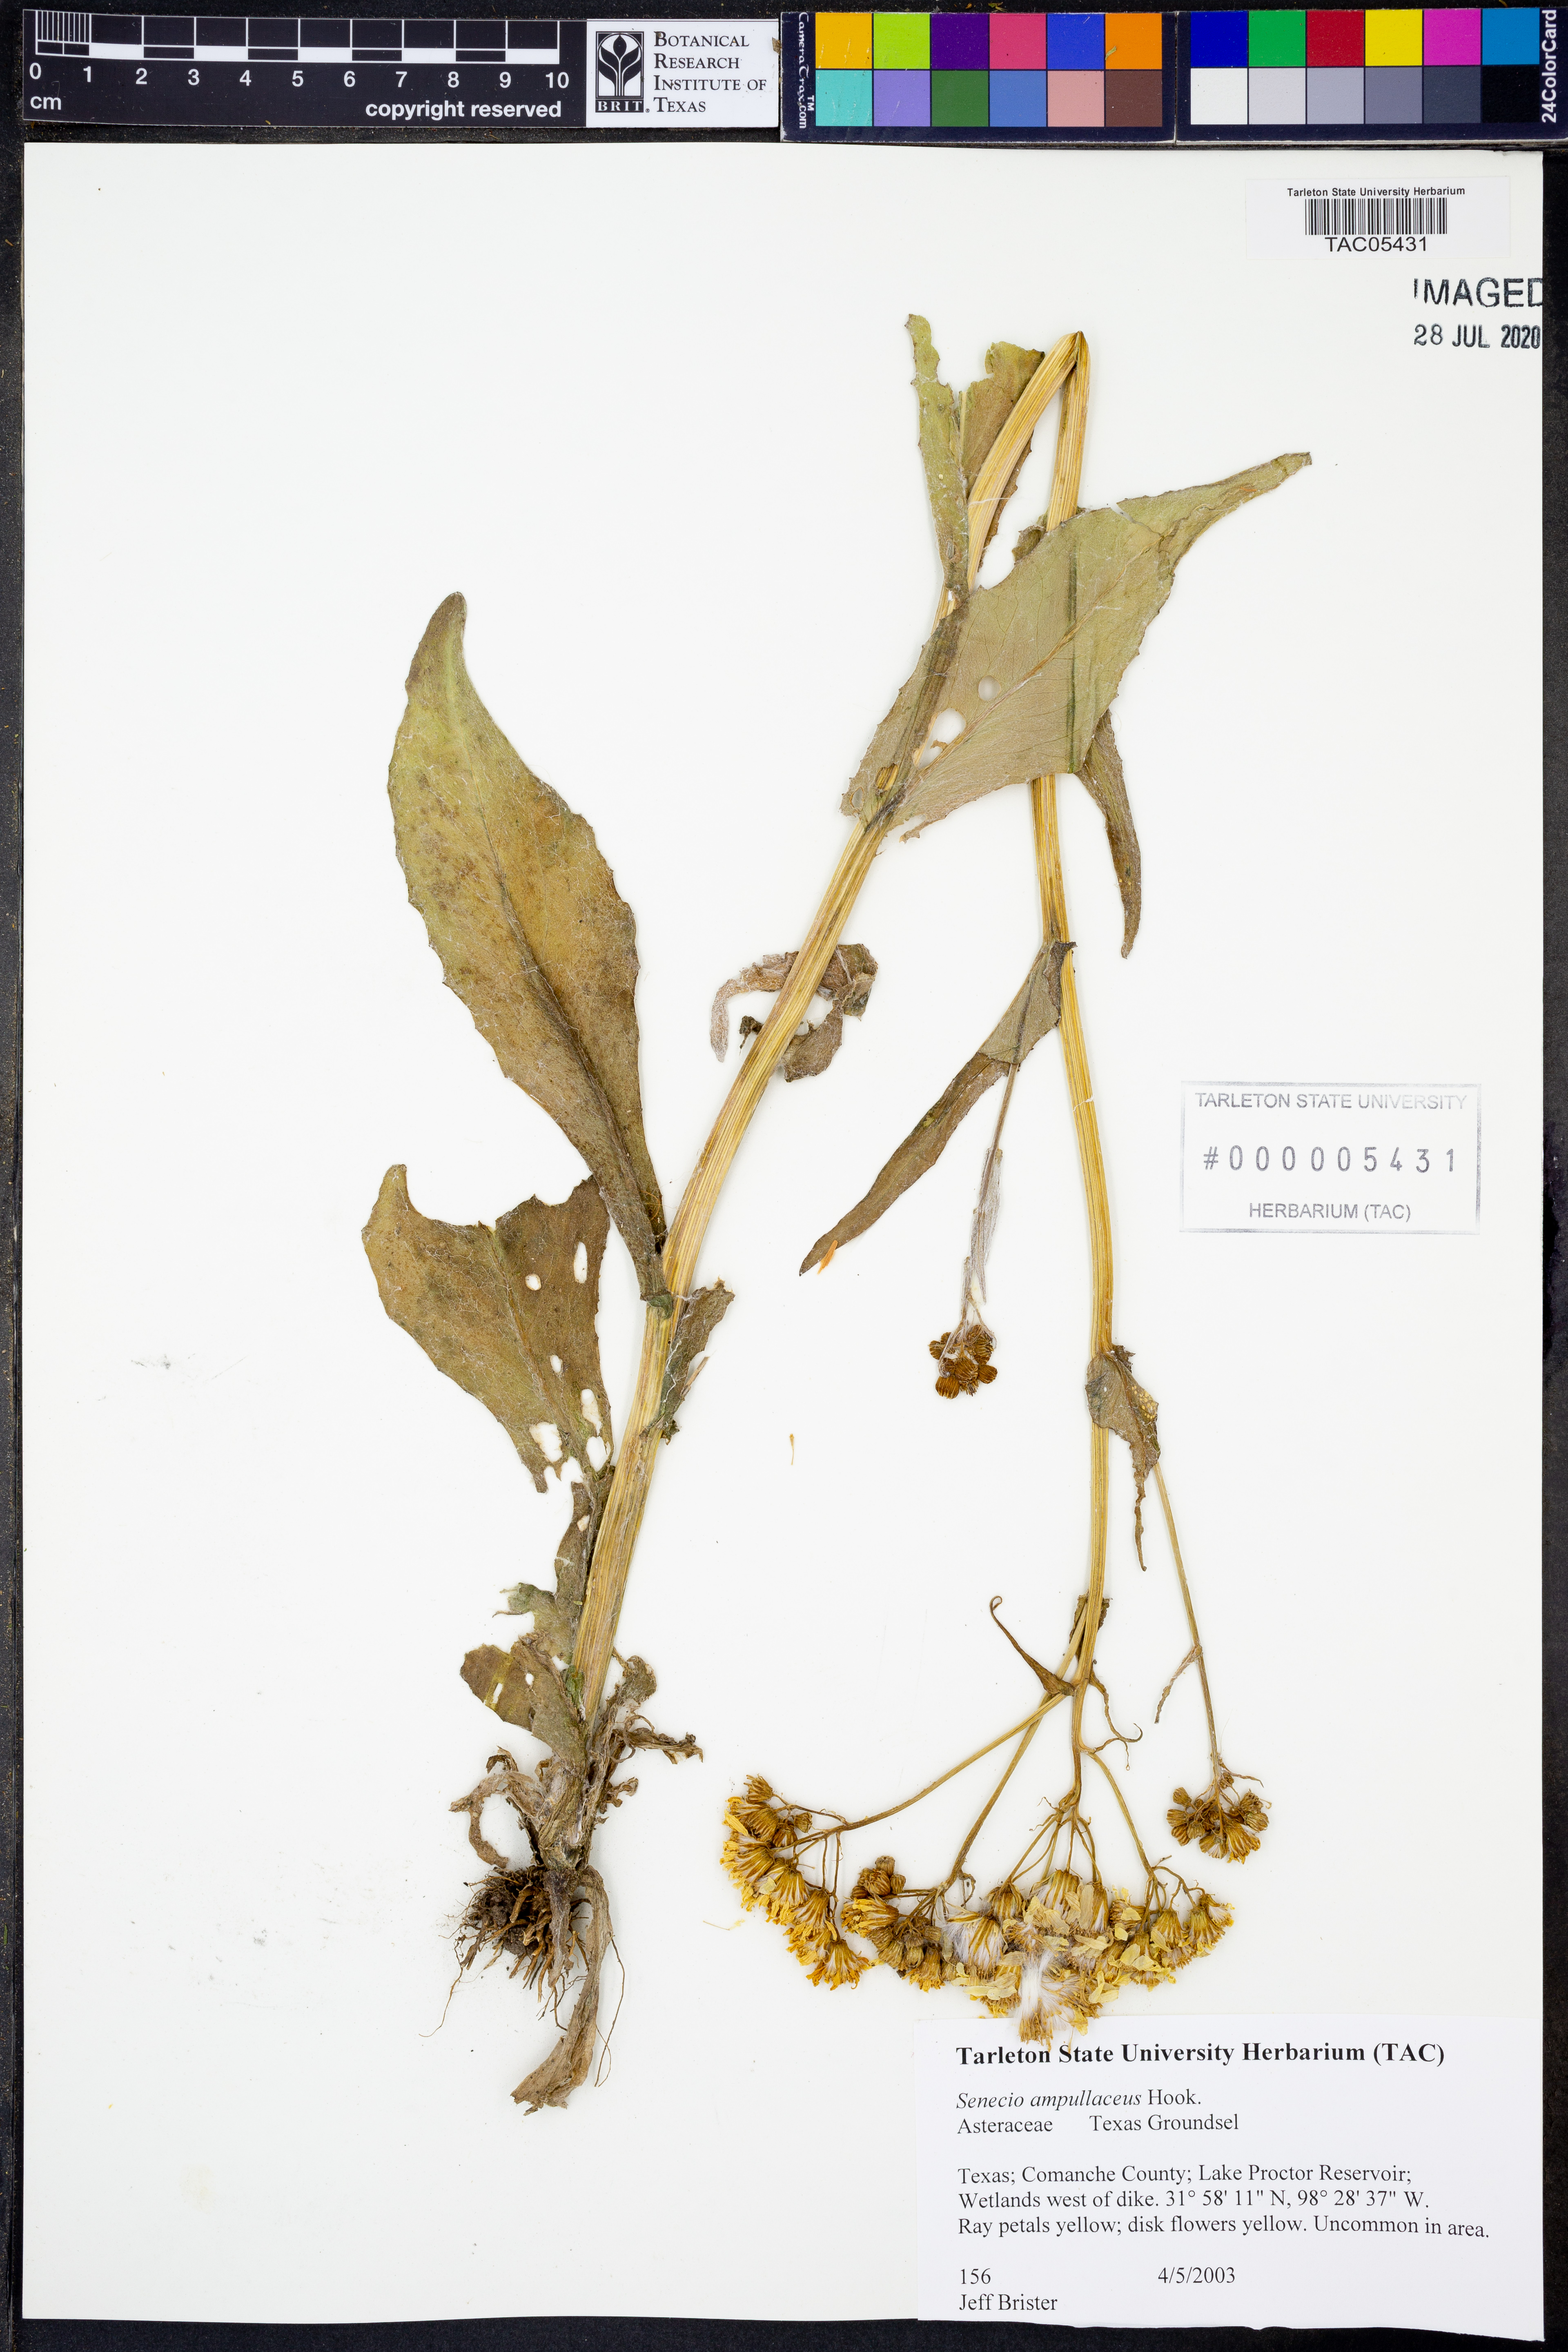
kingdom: Plantae
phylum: Tracheophyta
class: Magnoliopsida
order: Asterales
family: Asteraceae
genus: Senecio
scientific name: Senecio ampullaceus
